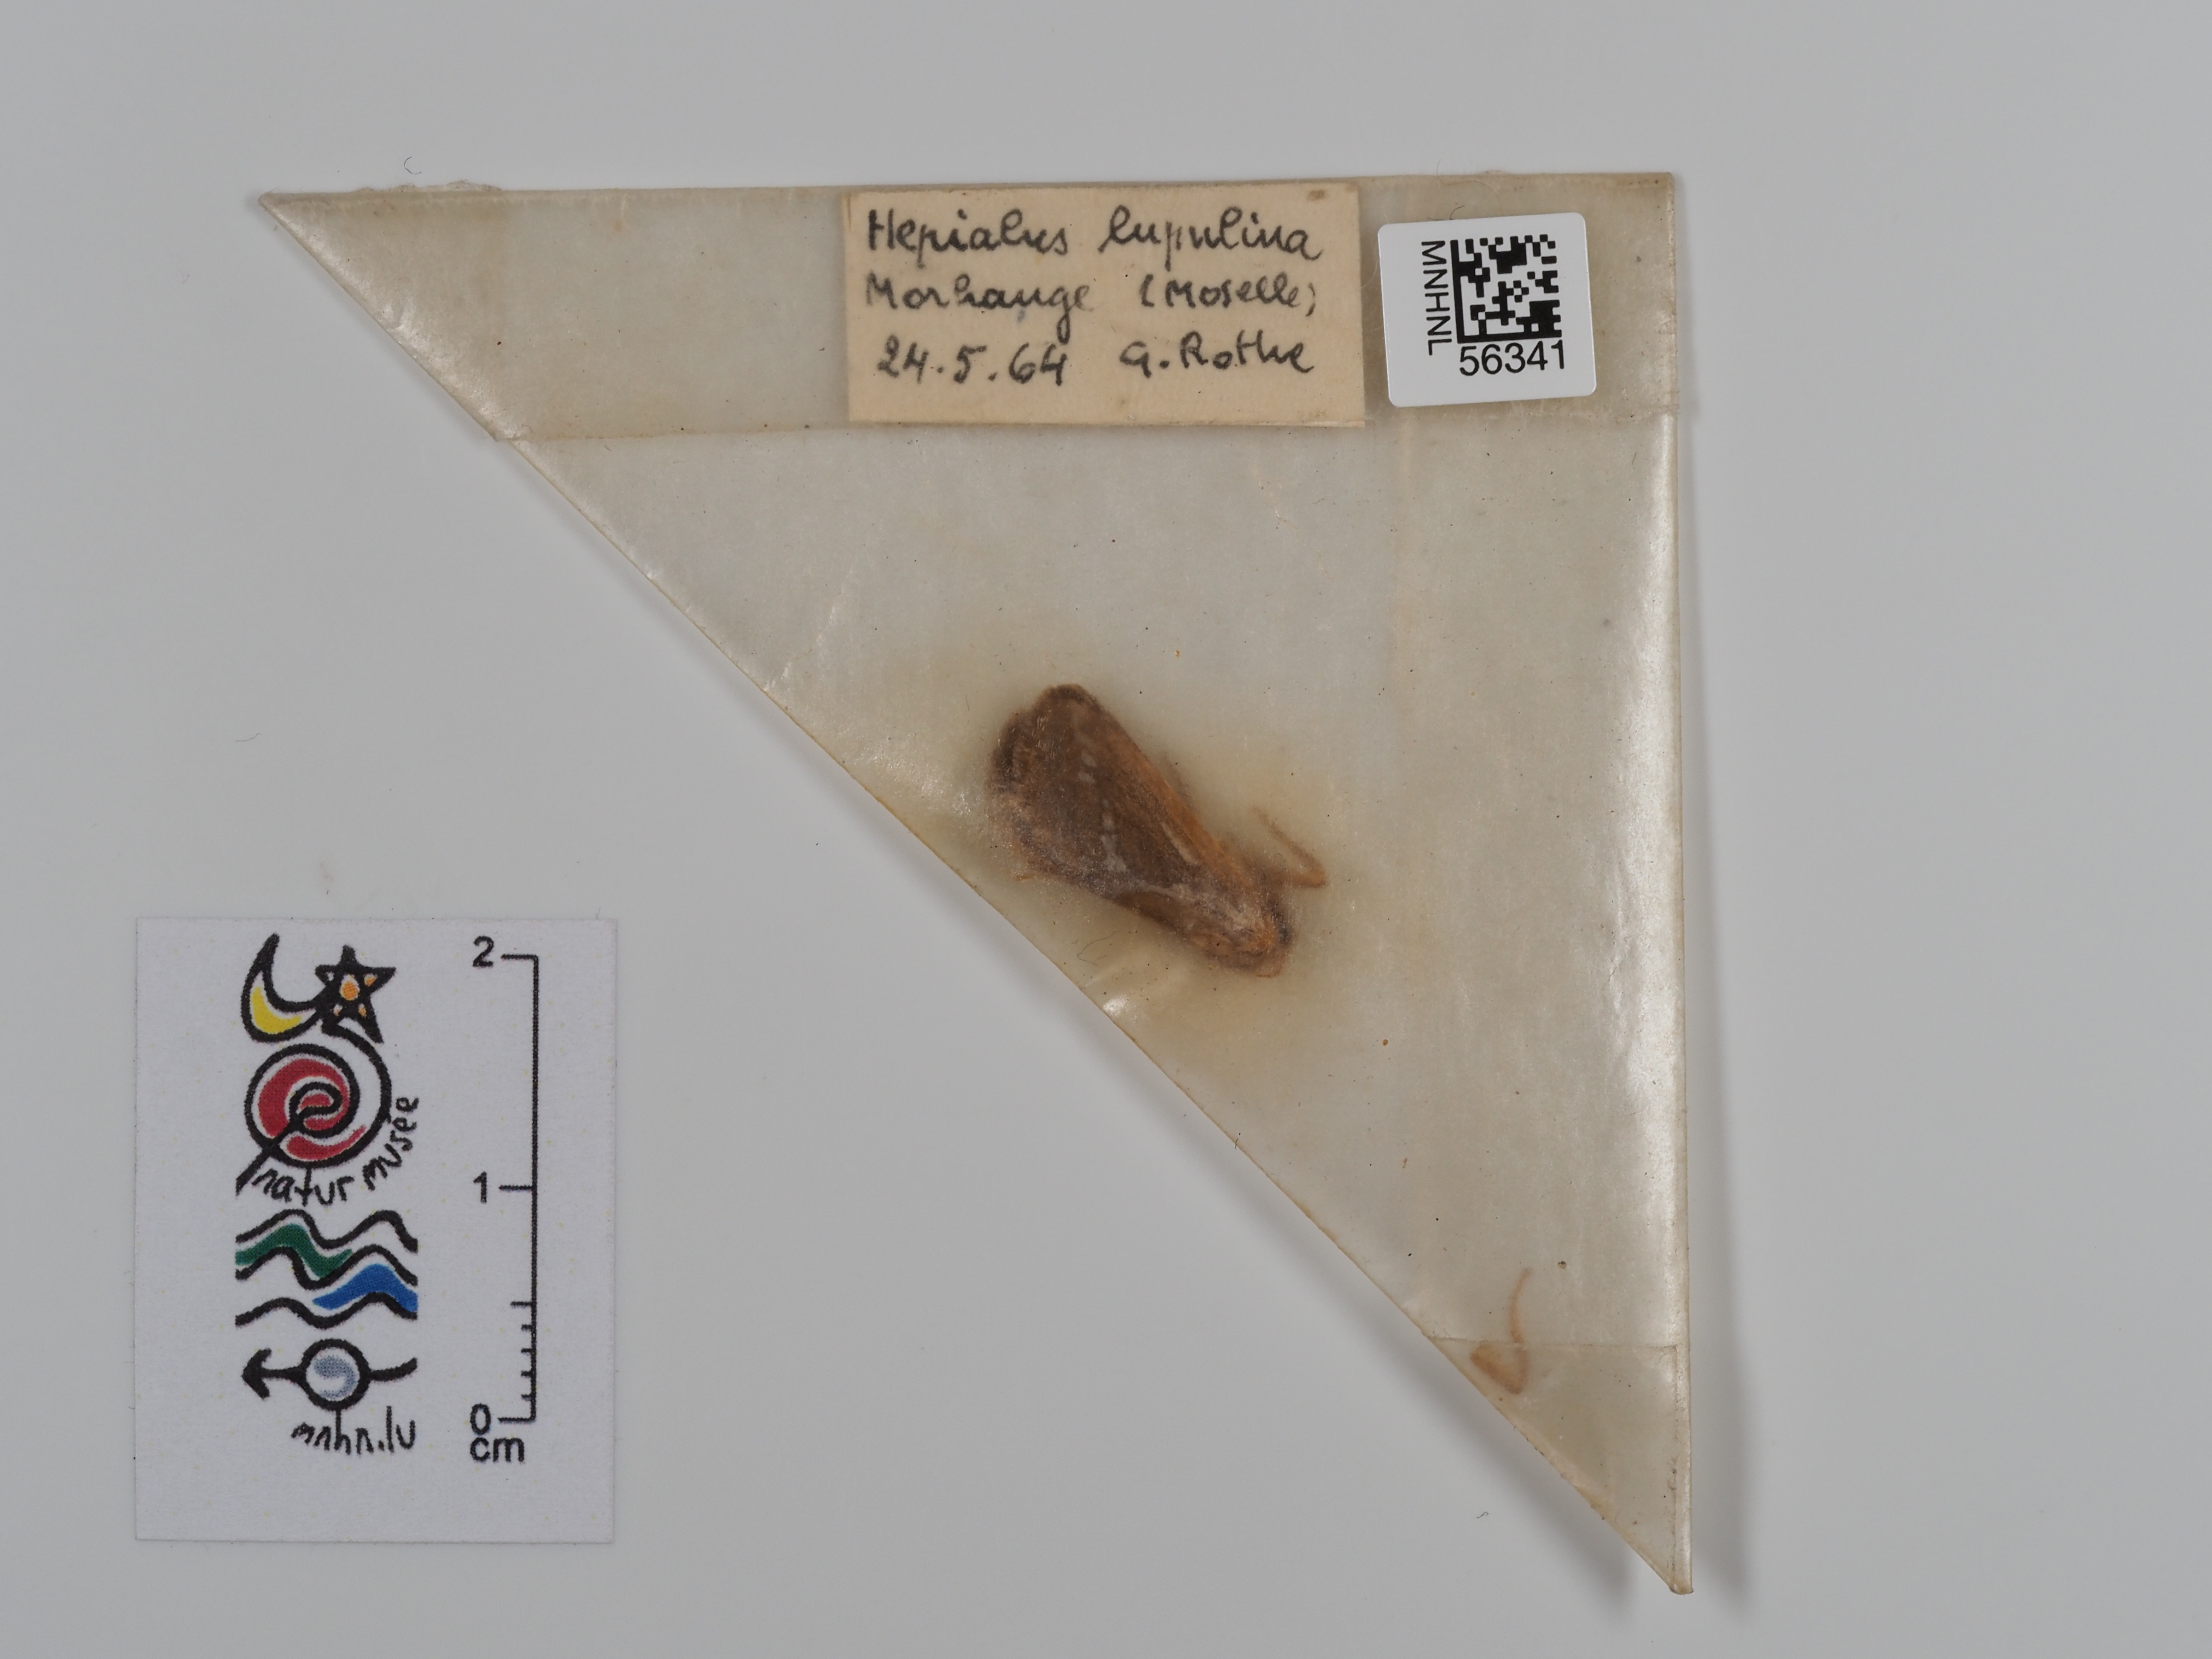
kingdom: Animalia
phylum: Arthropoda
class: Insecta
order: Lepidoptera
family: Hepialidae
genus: Korscheltellus
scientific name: Korscheltellus lupulina
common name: Common swift
